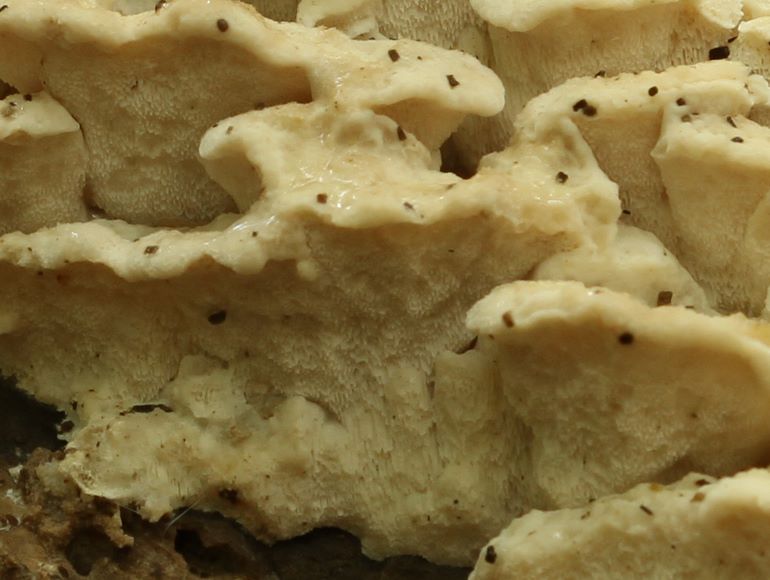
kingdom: Fungi
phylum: Basidiomycota
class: Agaricomycetes
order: Polyporales
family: Incrustoporiaceae
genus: Tyromyces
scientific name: Tyromyces lacteus
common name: mælkehvid kødporesvamp
